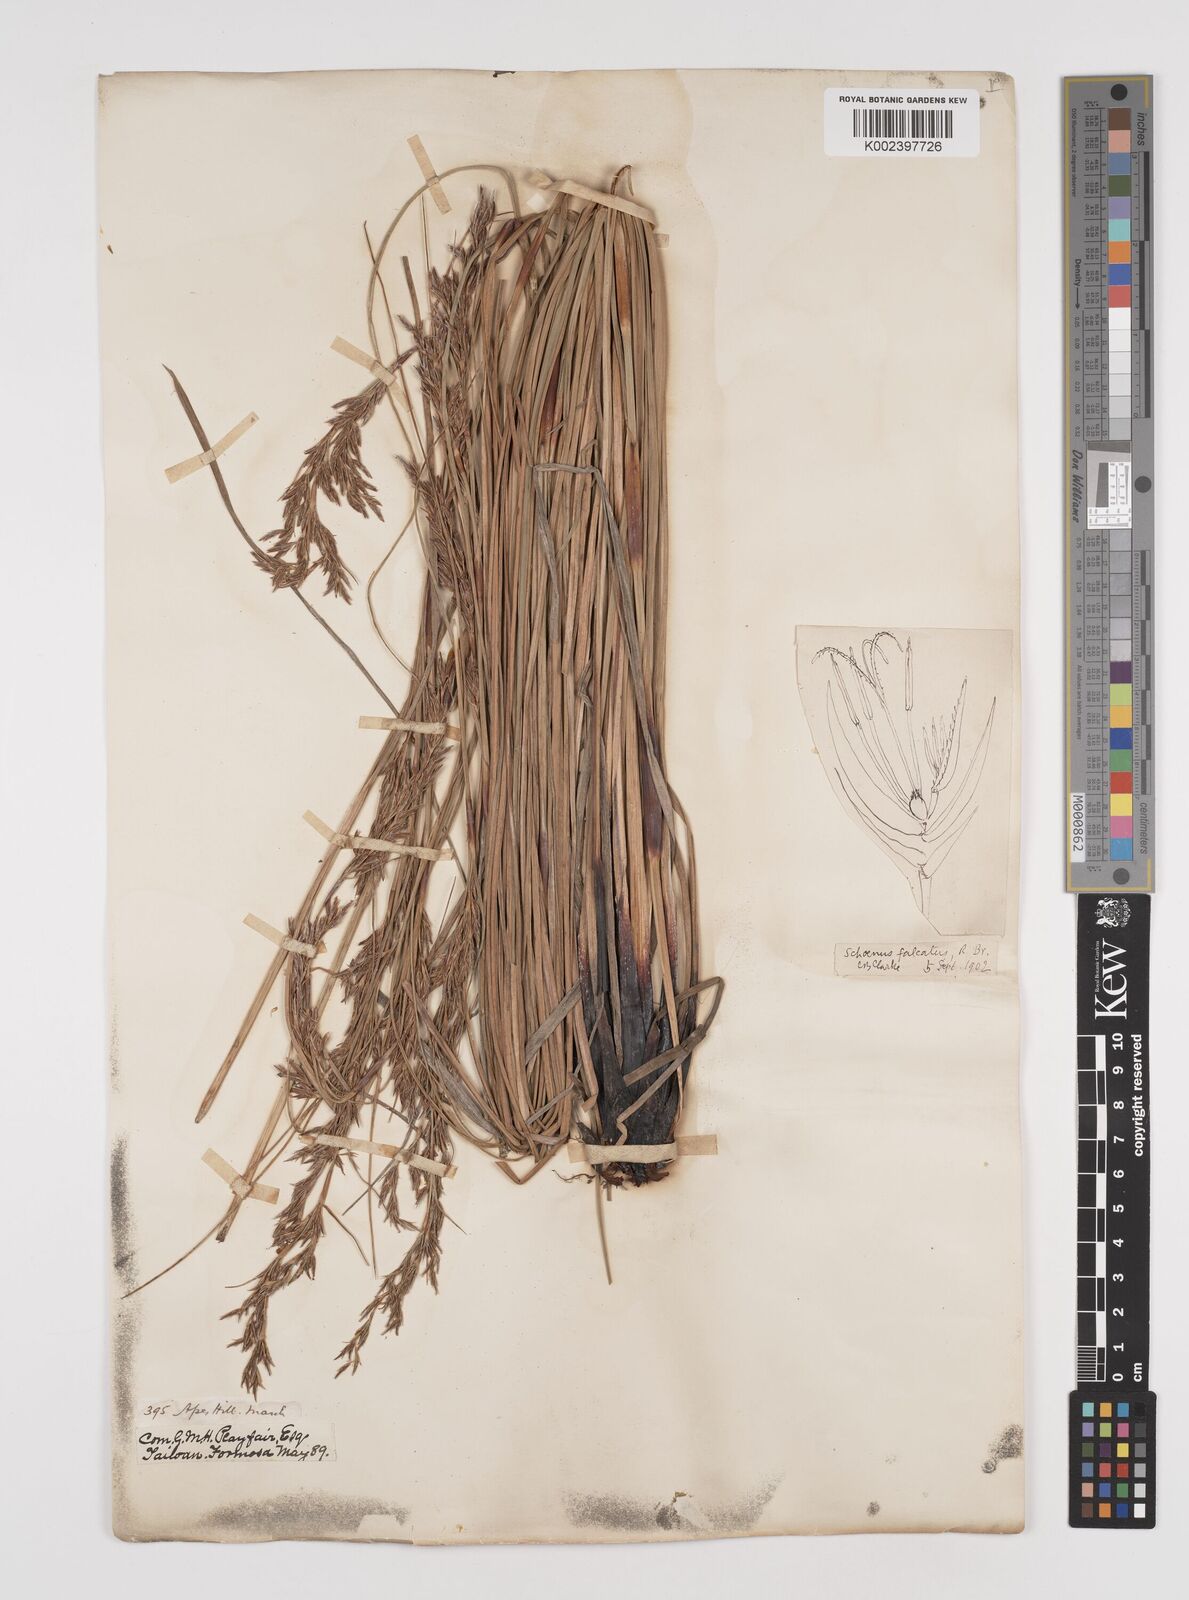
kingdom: Plantae
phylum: Tracheophyta
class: Liliopsida
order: Poales
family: Cyperaceae
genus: Schoenus
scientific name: Schoenus falcatus
